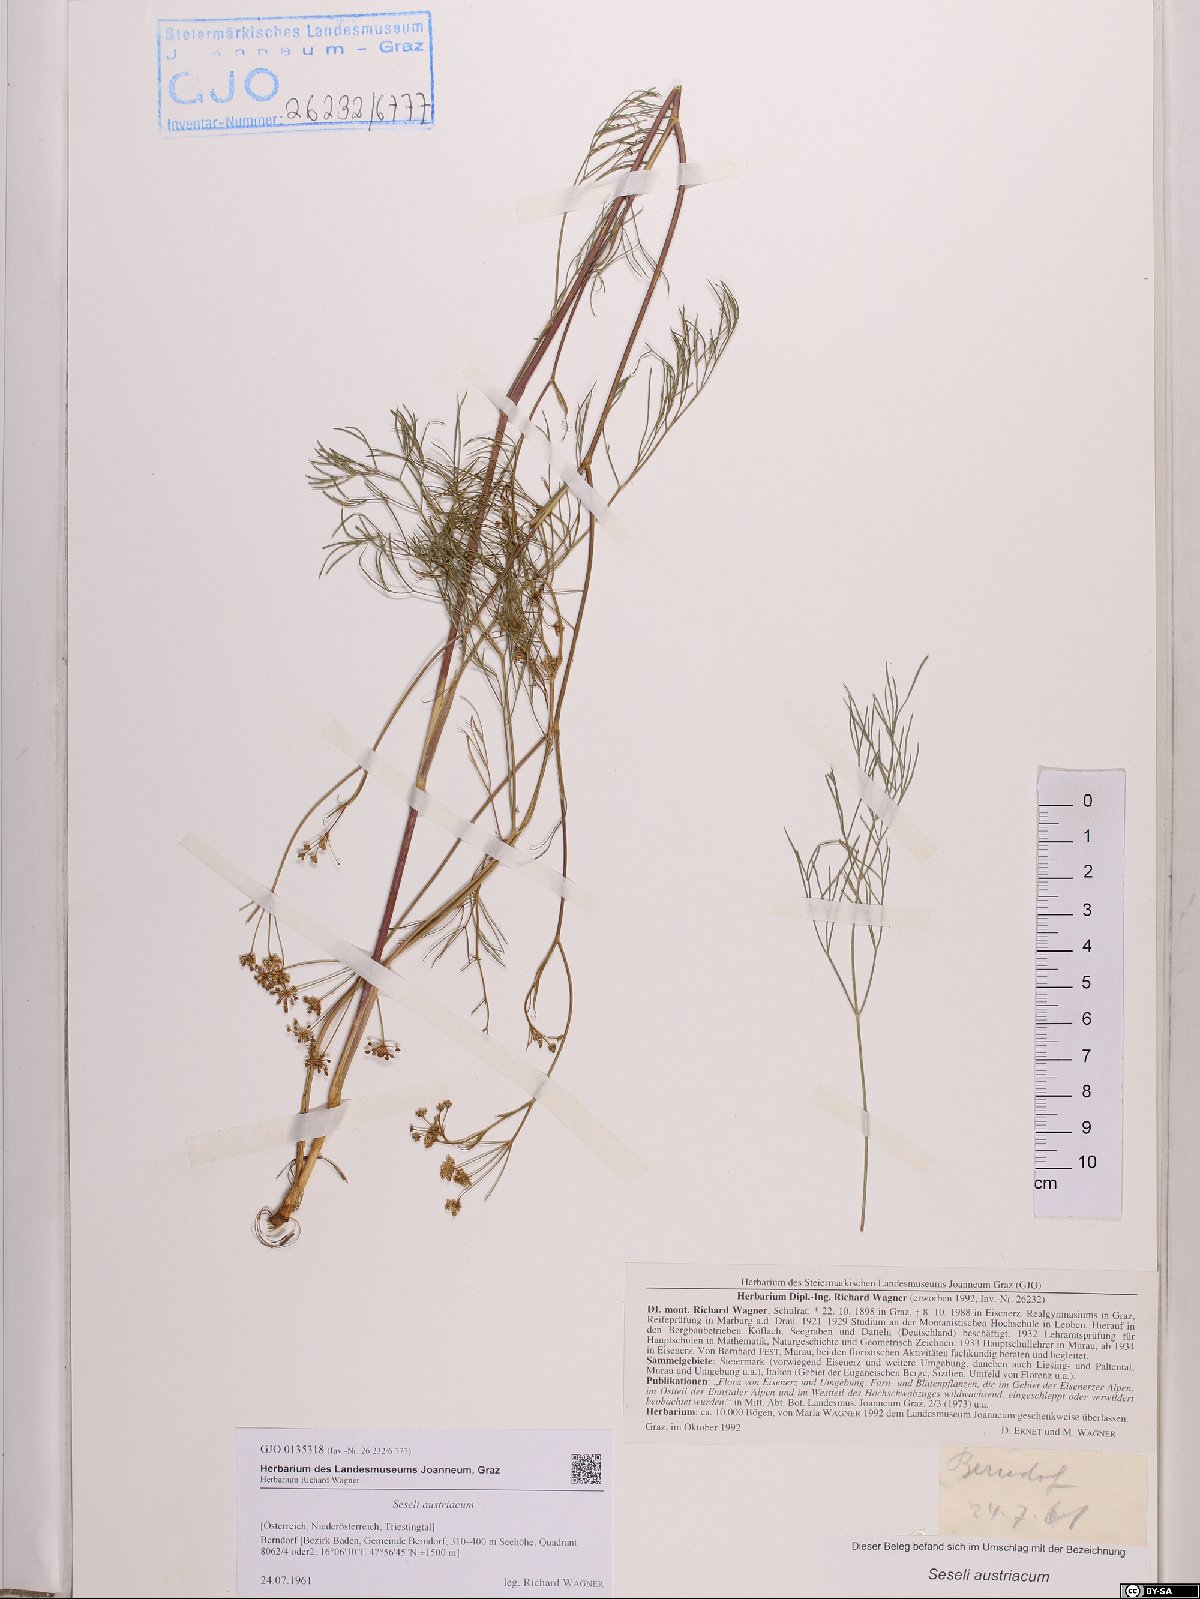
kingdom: Plantae
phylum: Tracheophyta
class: Magnoliopsida
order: Apiales
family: Apiaceae
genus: Seseli
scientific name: Seseli austriacum
